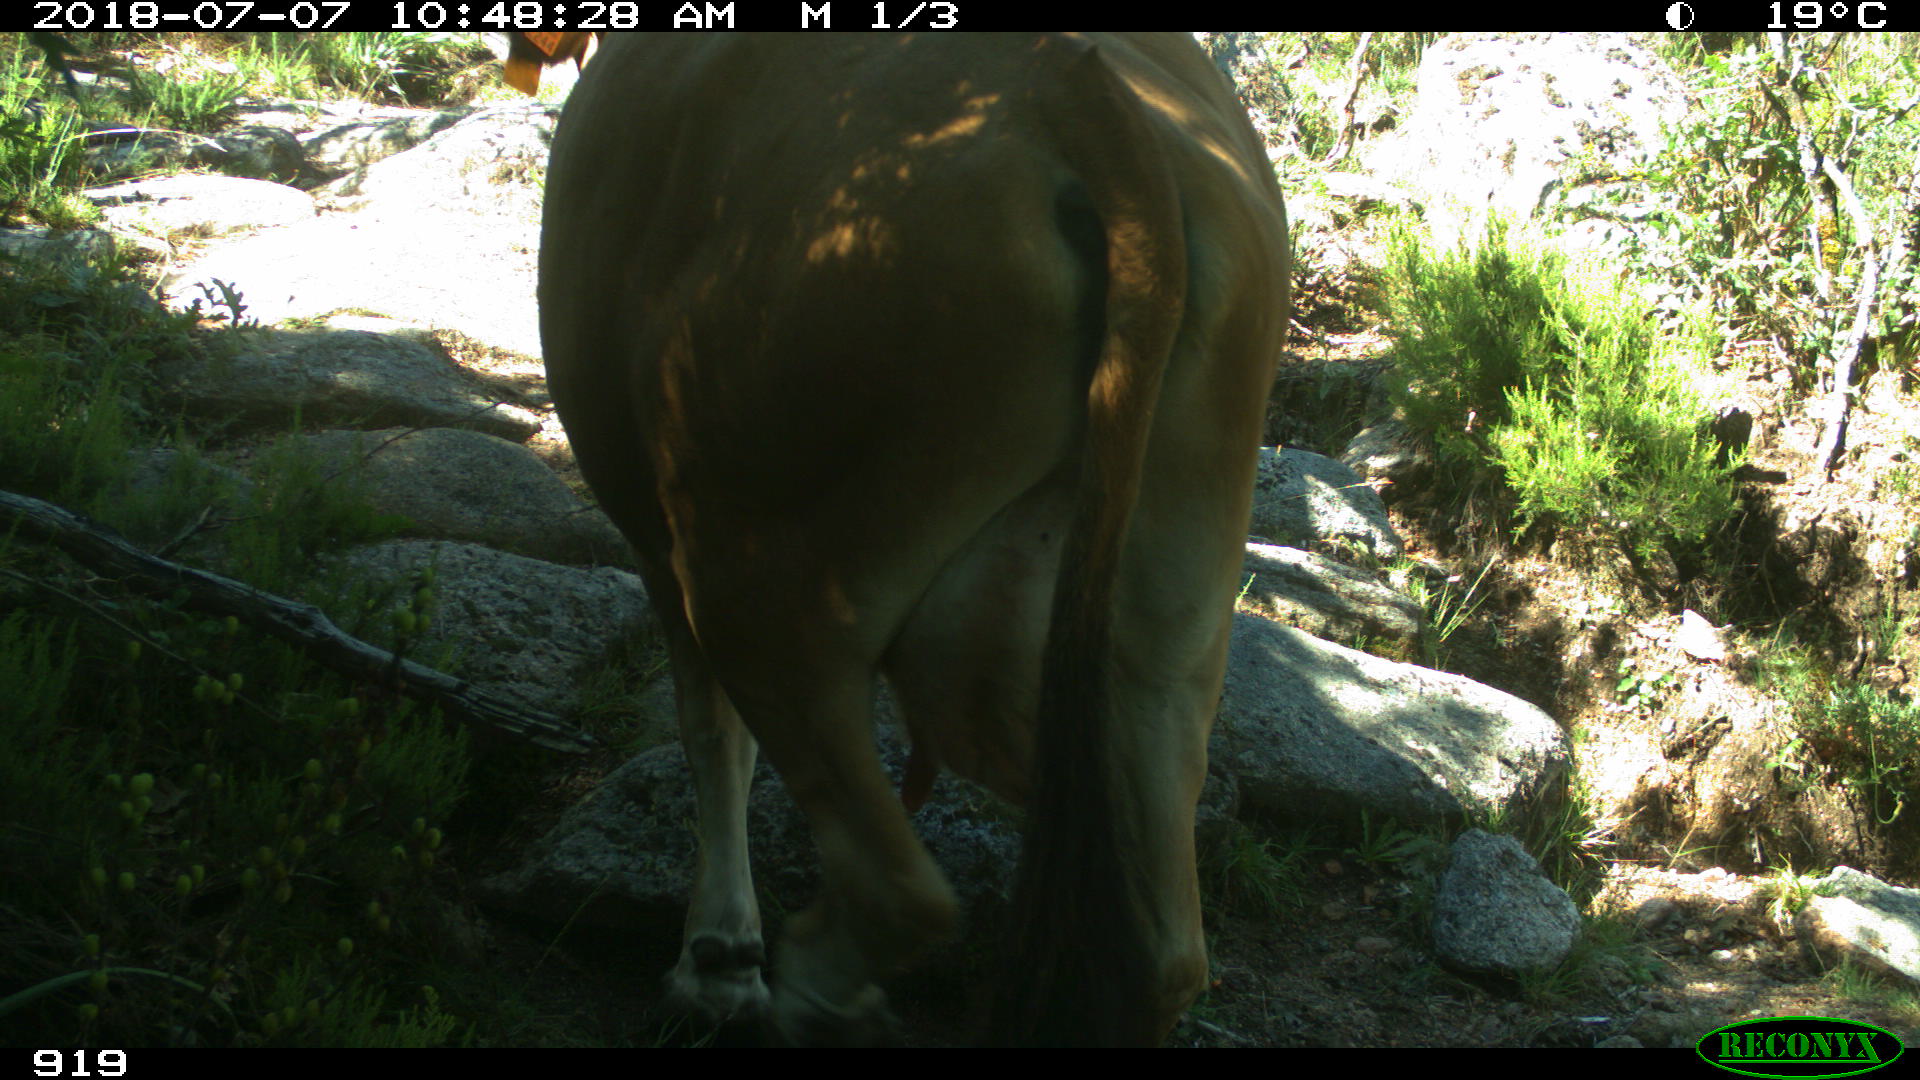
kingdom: Animalia
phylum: Chordata
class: Mammalia
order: Artiodactyla
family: Bovidae
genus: Bos
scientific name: Bos taurus
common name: Domesticated cattle
